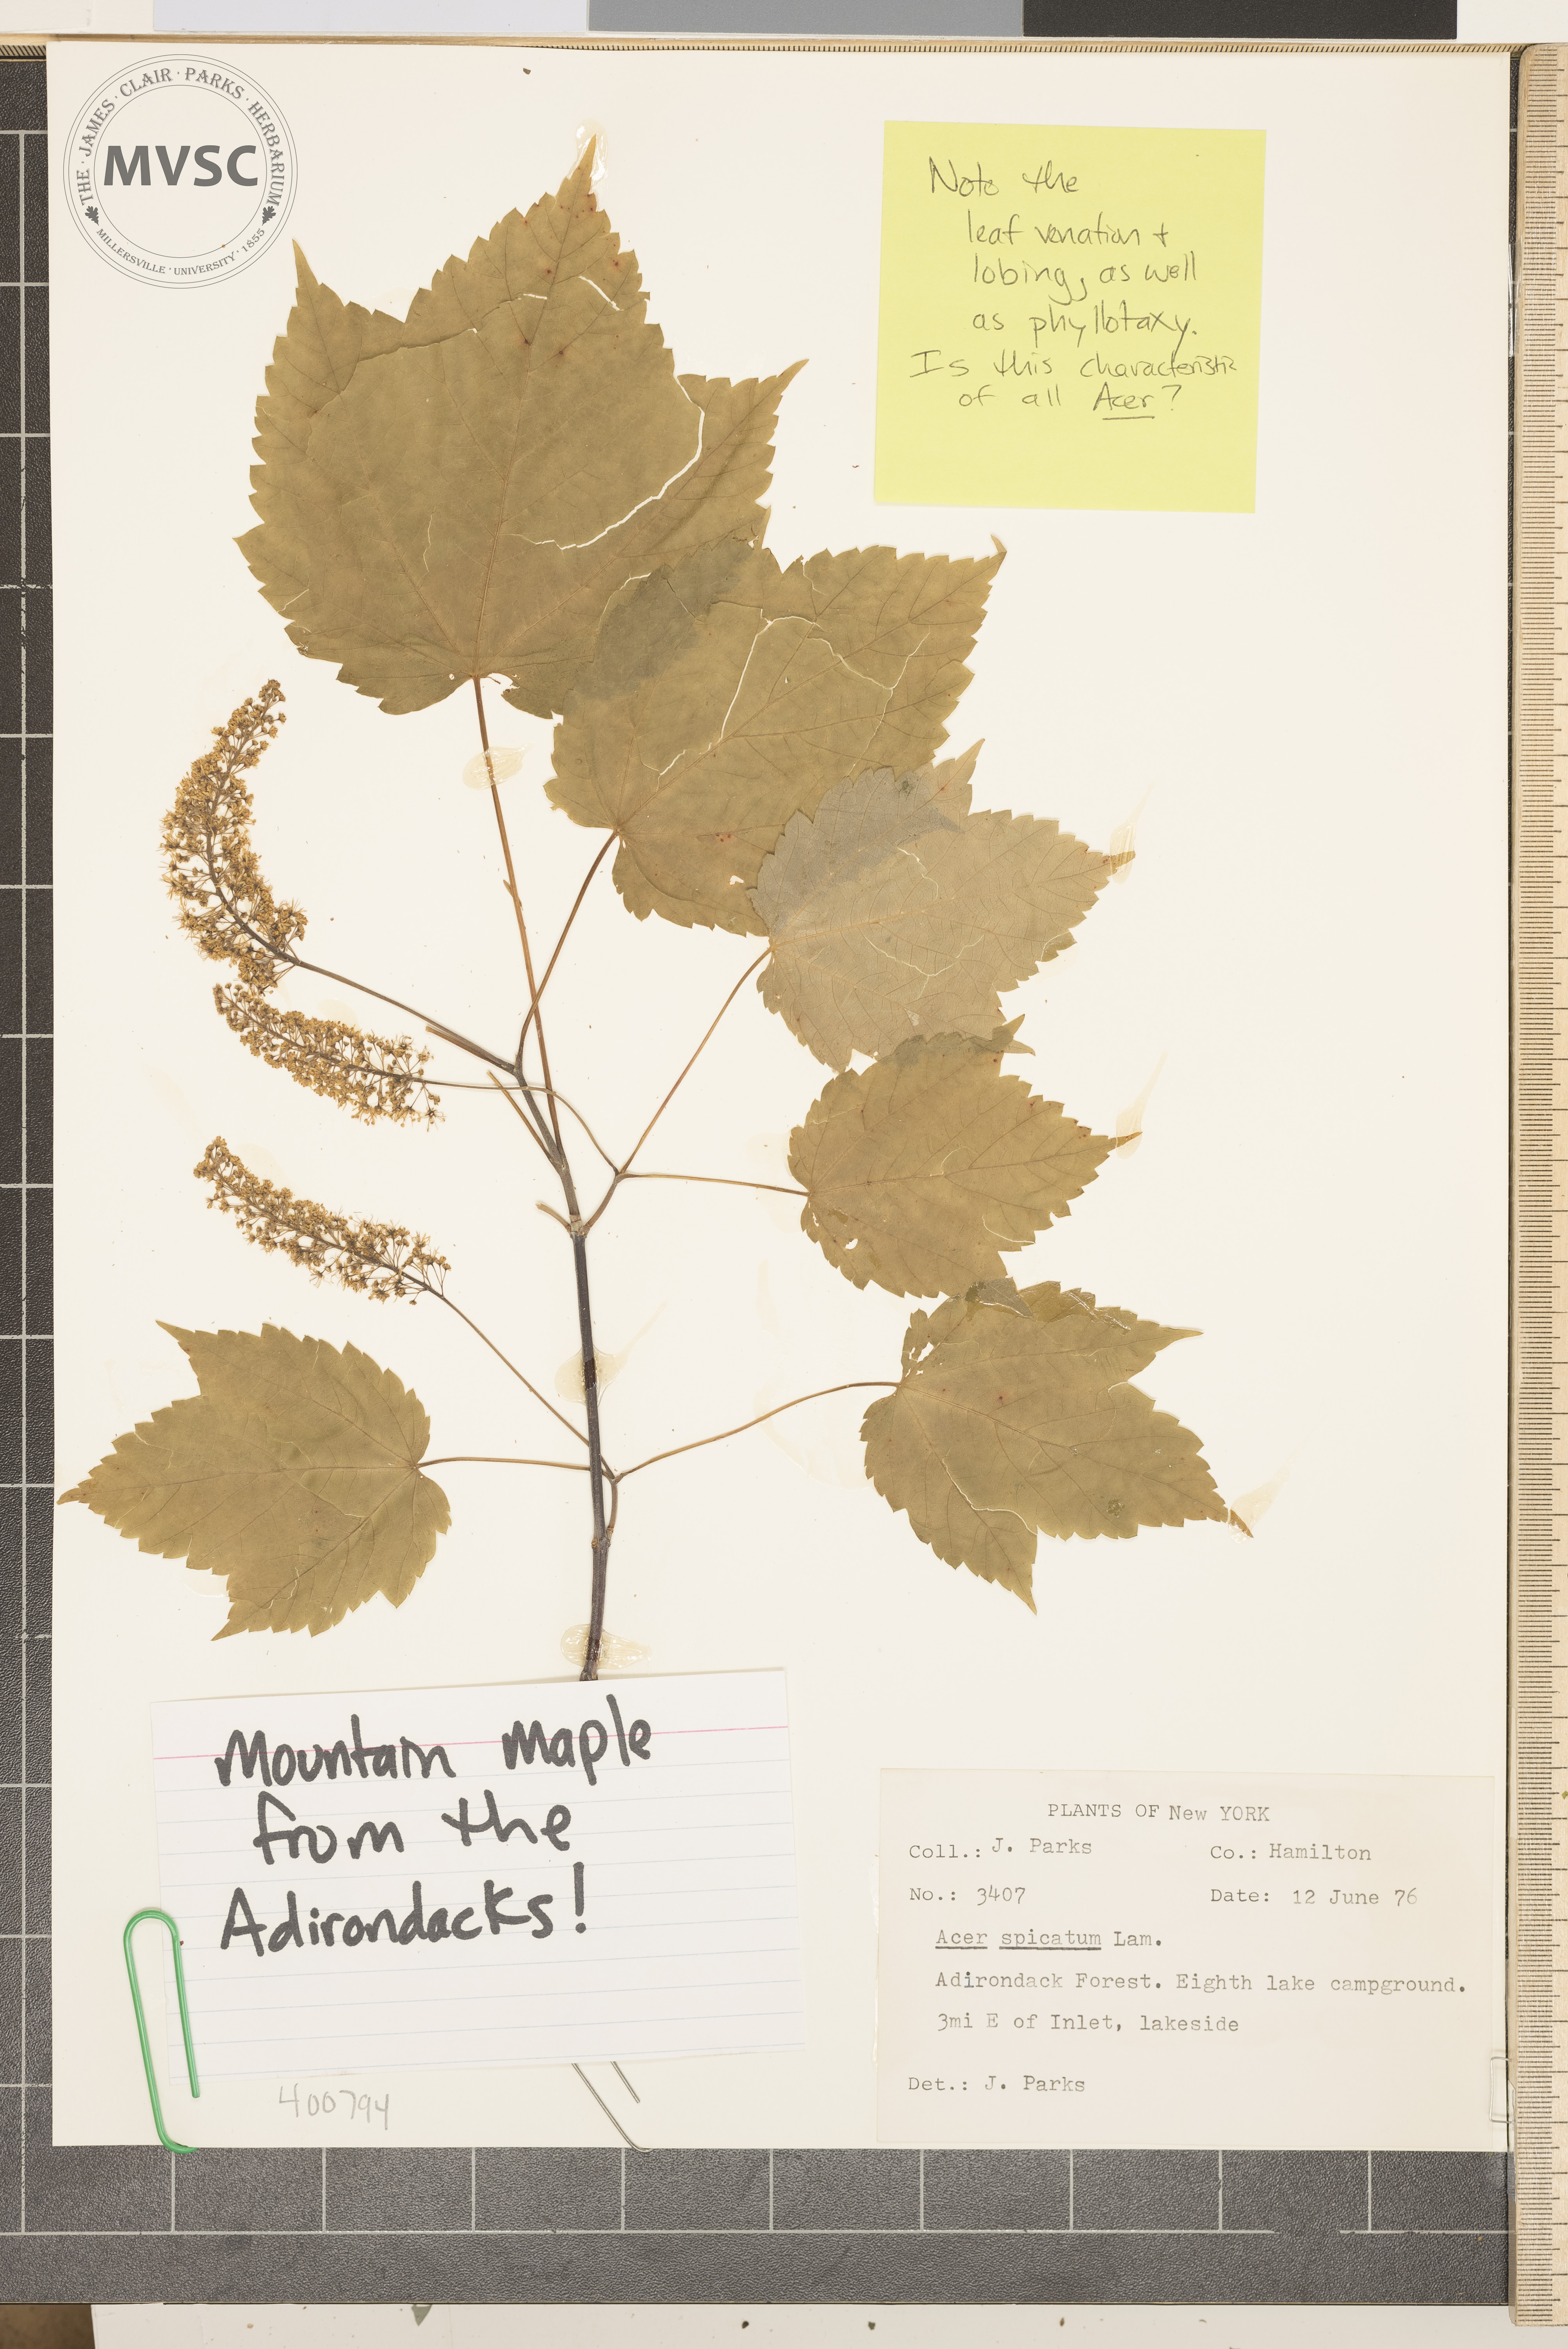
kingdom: Plantae
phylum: Tracheophyta
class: Magnoliopsida
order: Sapindales
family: Sapindaceae
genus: Acer
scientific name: Acer spicatum
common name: mountain maple
